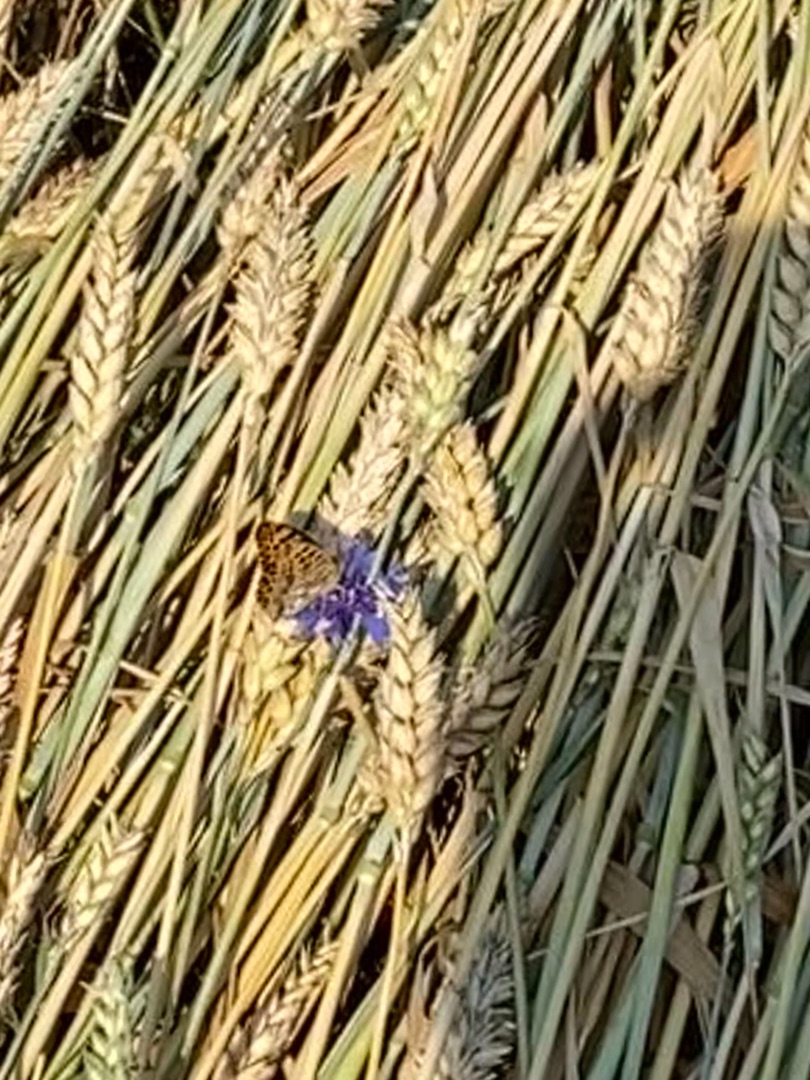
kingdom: Animalia
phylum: Arthropoda
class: Insecta
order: Lepidoptera
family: Nymphalidae
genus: Issoria
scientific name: Issoria lathonia
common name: Storplettet perlemorsommerfugl
